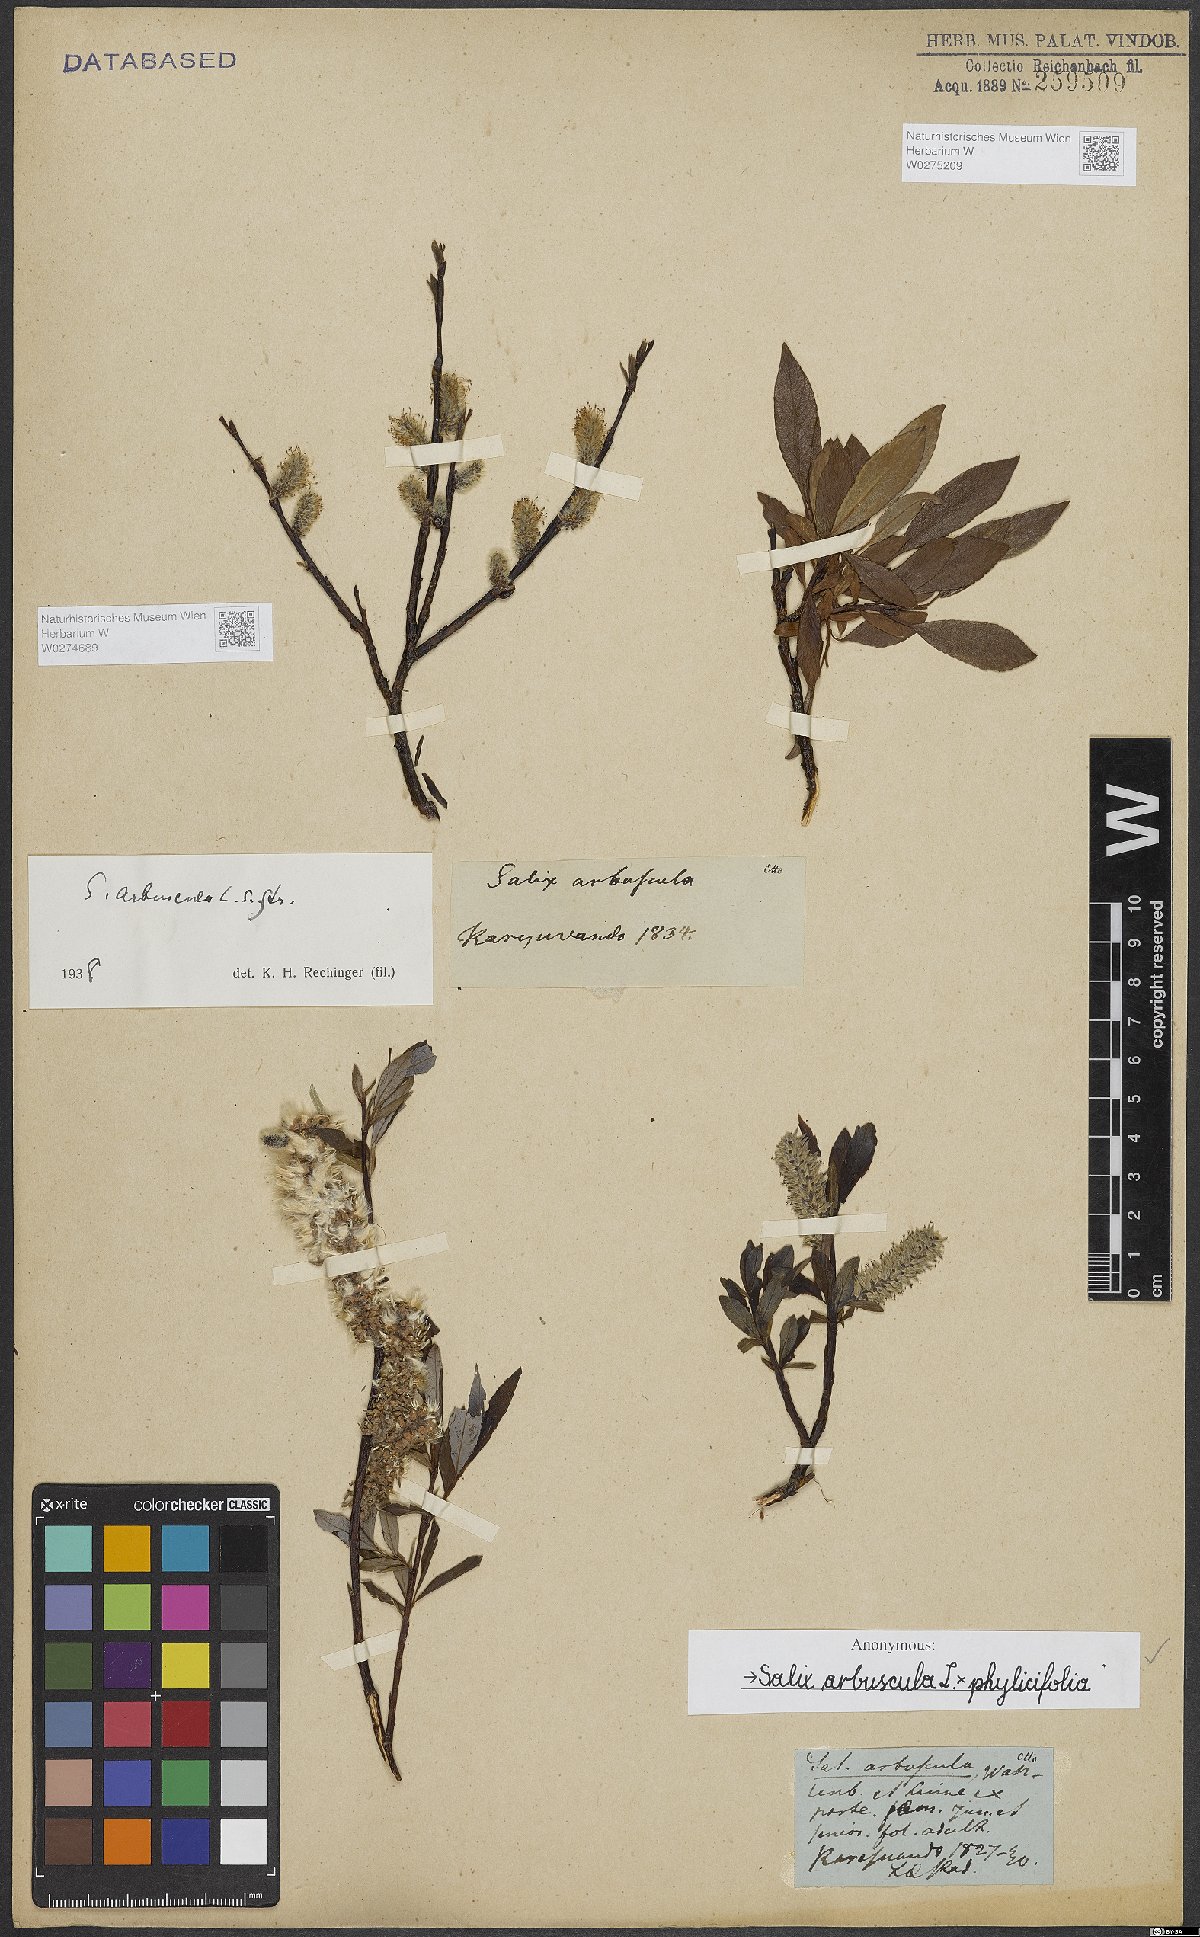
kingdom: Plantae
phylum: Tracheophyta
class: Magnoliopsida
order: Malpighiales
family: Salicaceae
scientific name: Salicaceae
